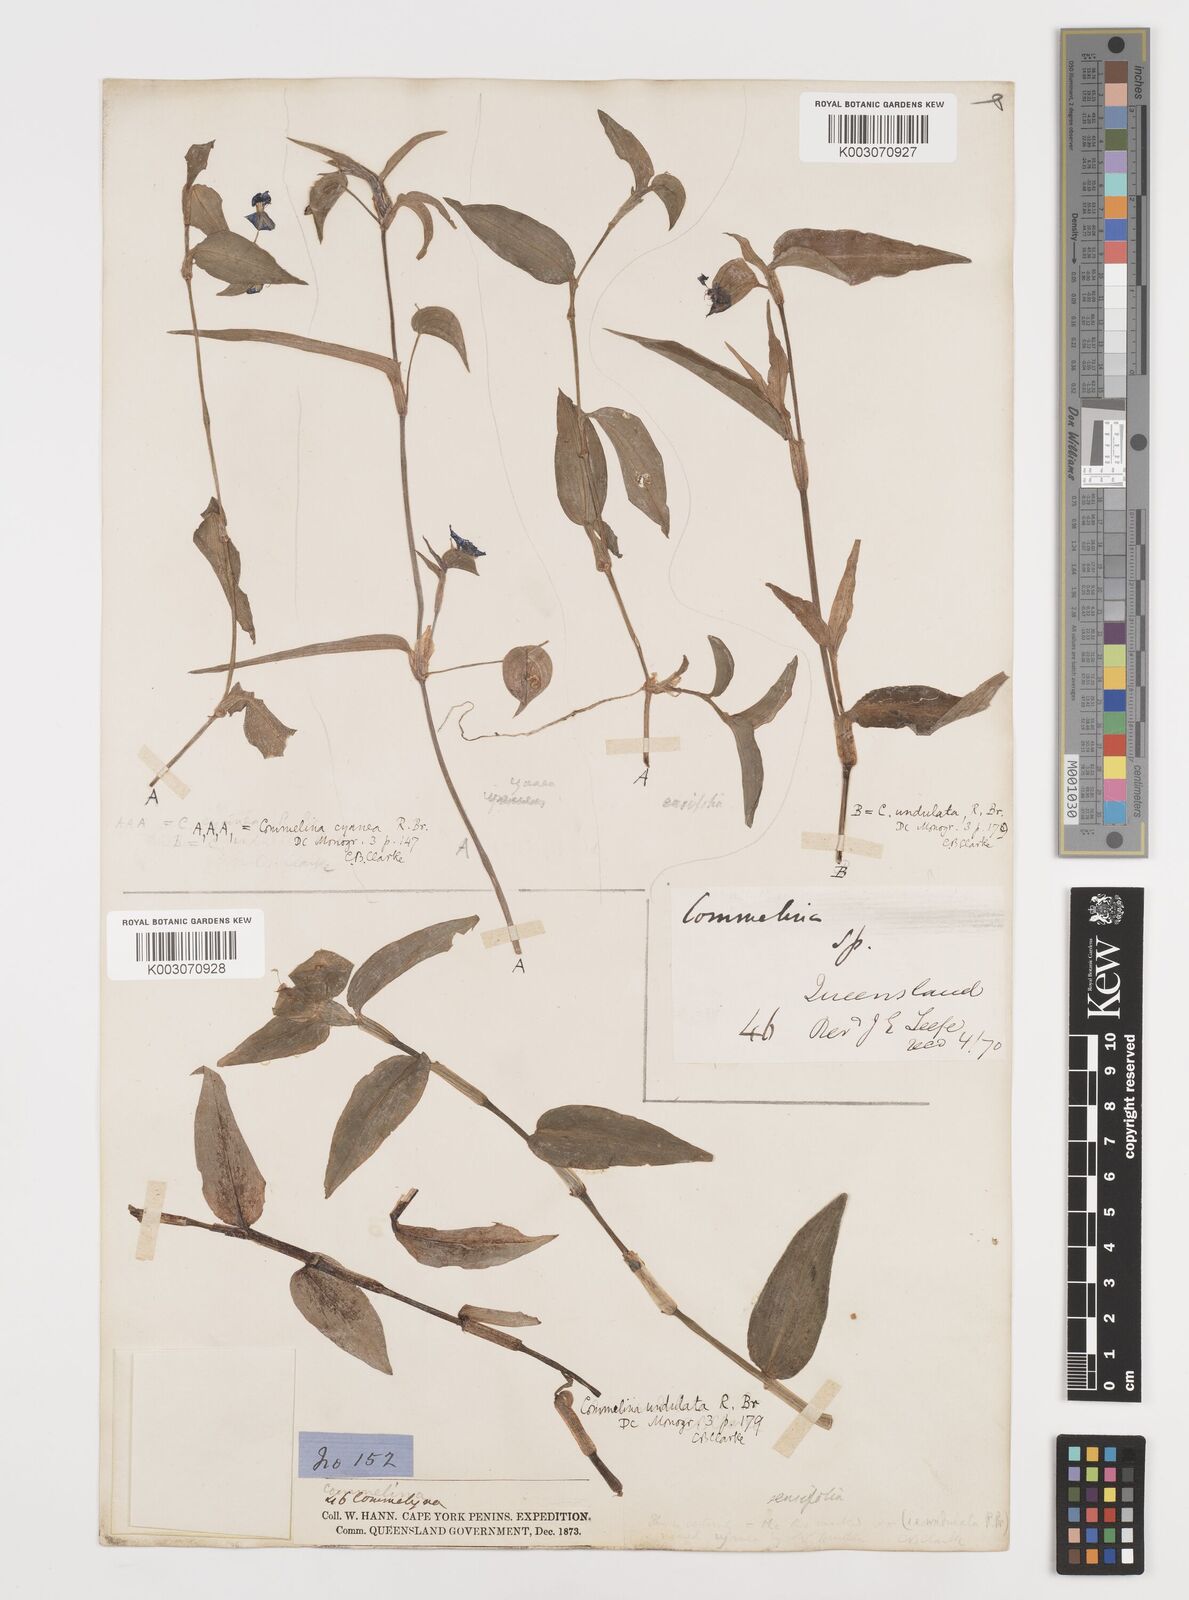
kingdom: Plantae
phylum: Tracheophyta
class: Liliopsida
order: Commelinales
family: Commelinaceae
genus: Commelina
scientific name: Commelina ensifolia
